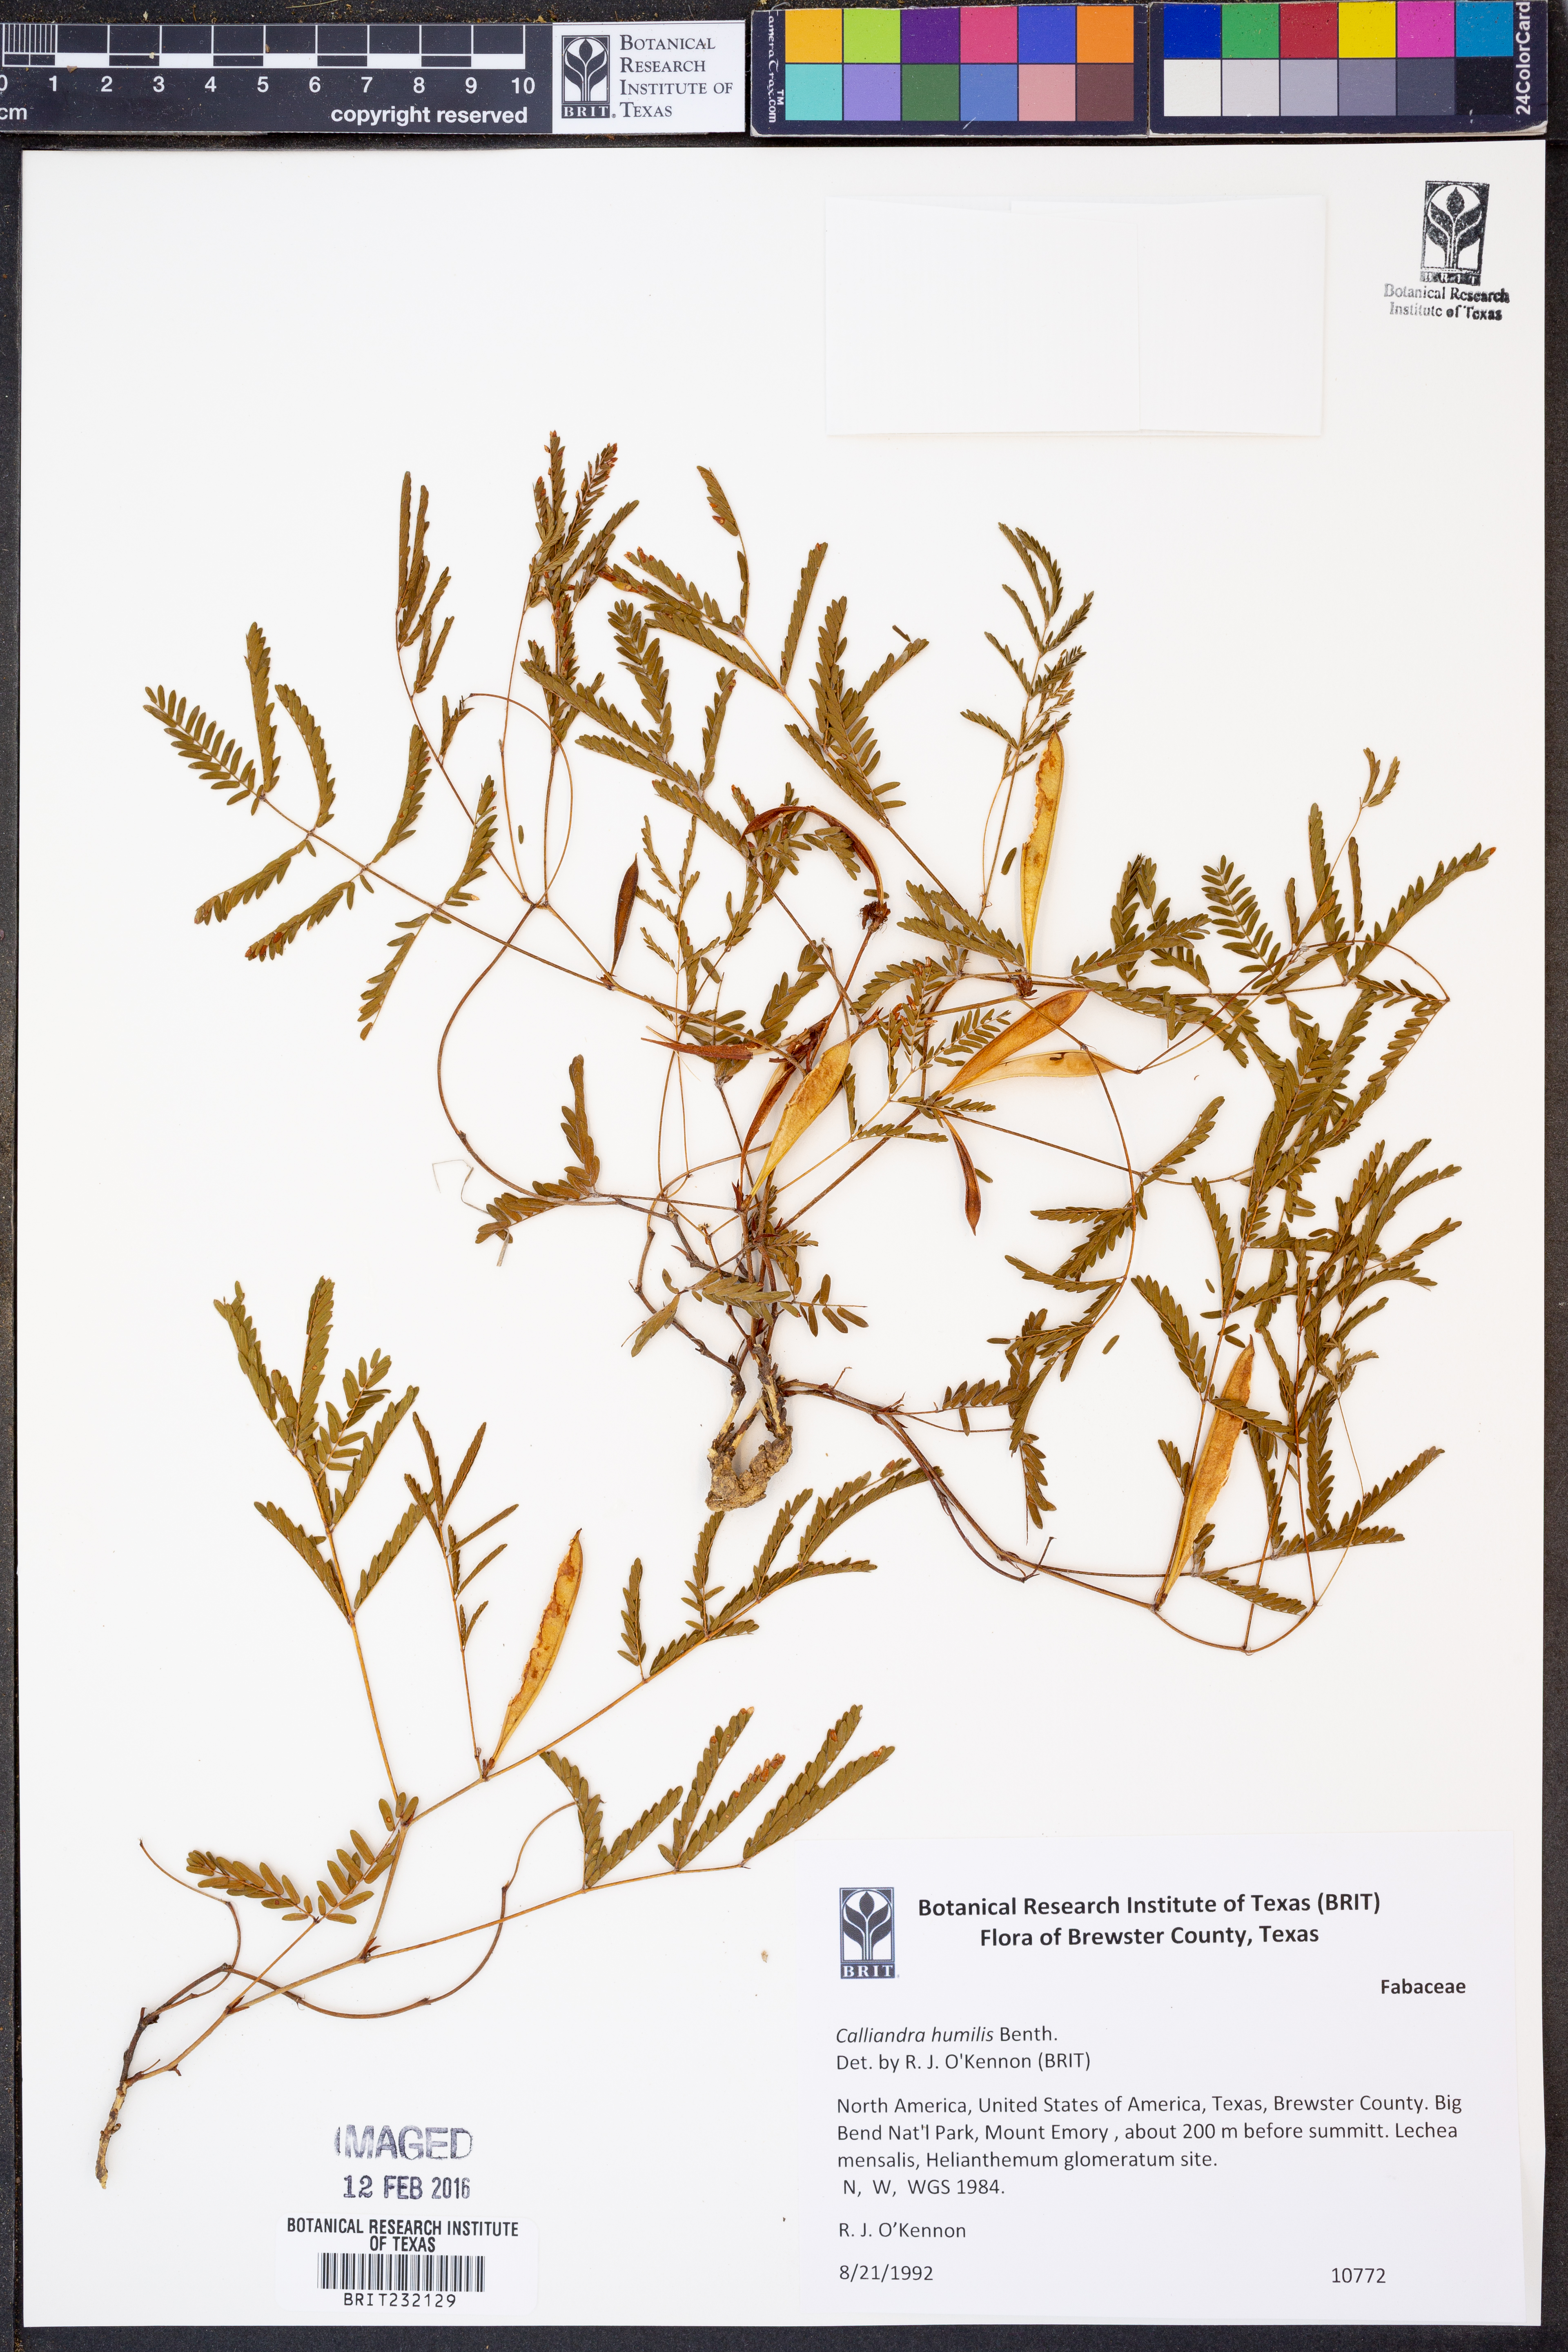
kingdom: Plantae
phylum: Tracheophyta
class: Magnoliopsida
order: Fabales
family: Fabaceae
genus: Calliandra
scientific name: Calliandra humilis
